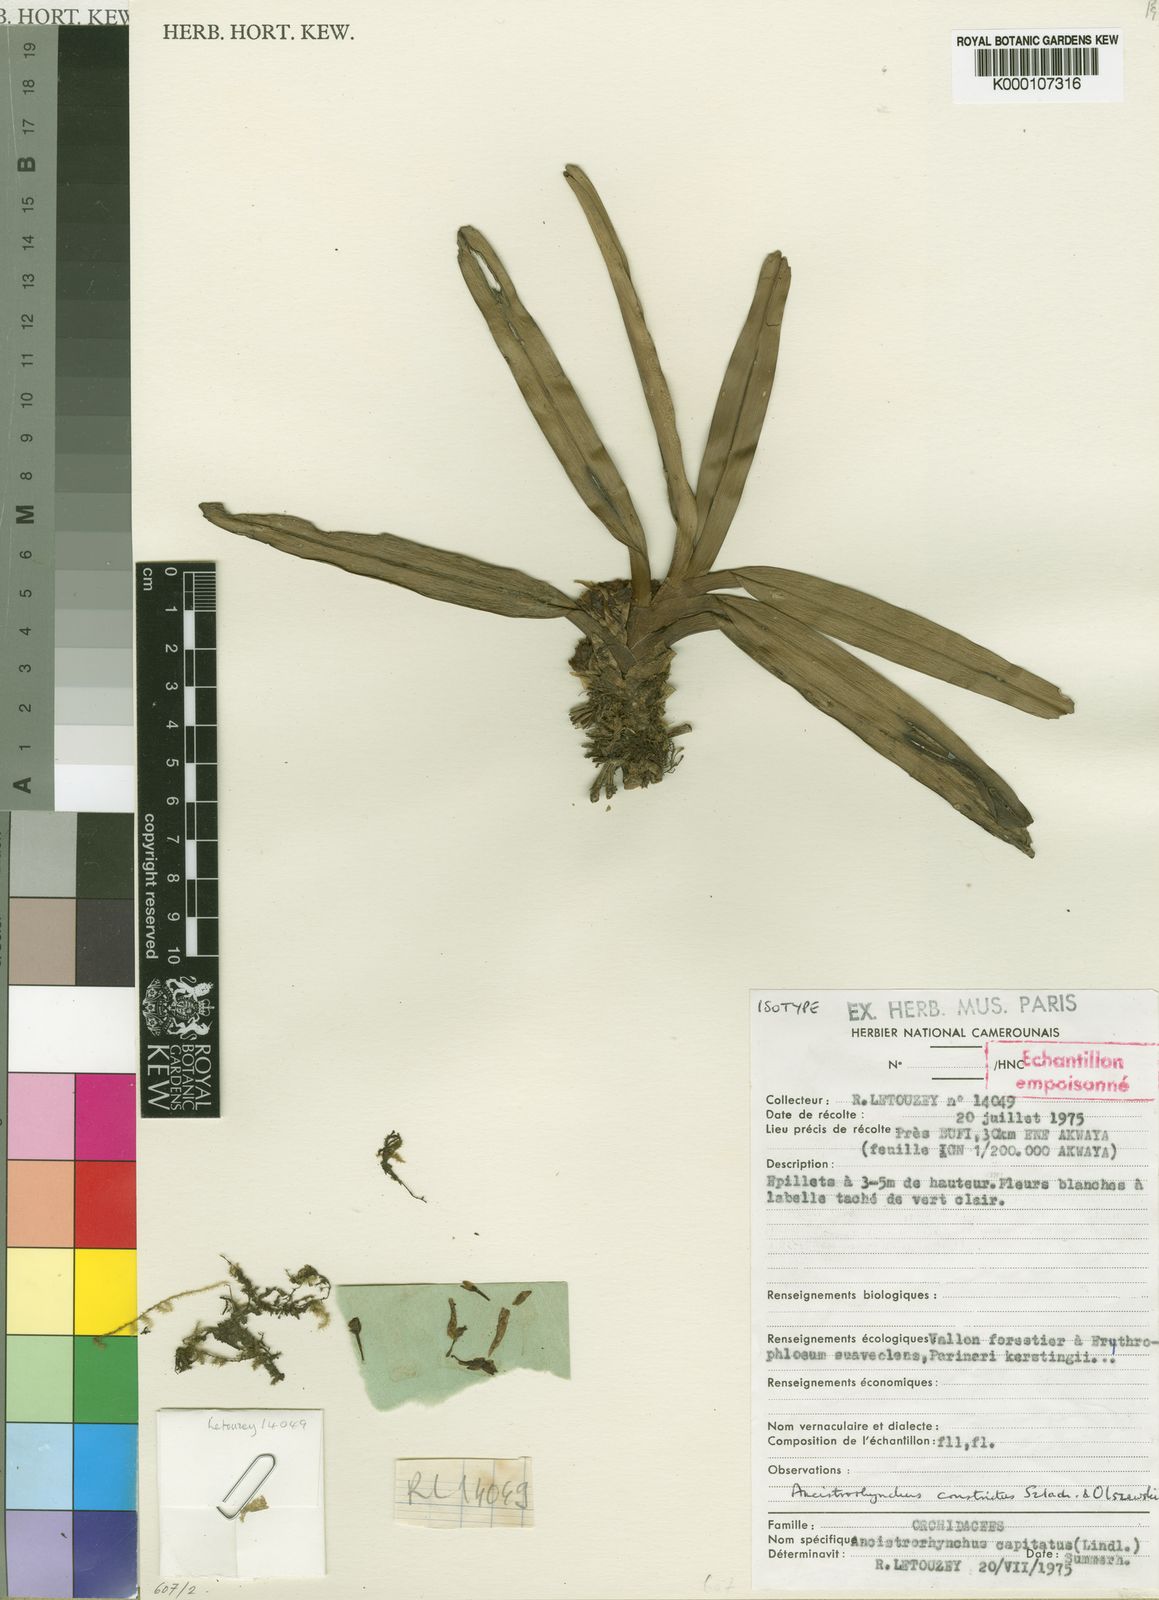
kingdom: Plantae
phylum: Tracheophyta
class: Liliopsida
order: Asparagales
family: Orchidaceae
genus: Ancistrorhynchus
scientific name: Ancistrorhynchus capitatus
